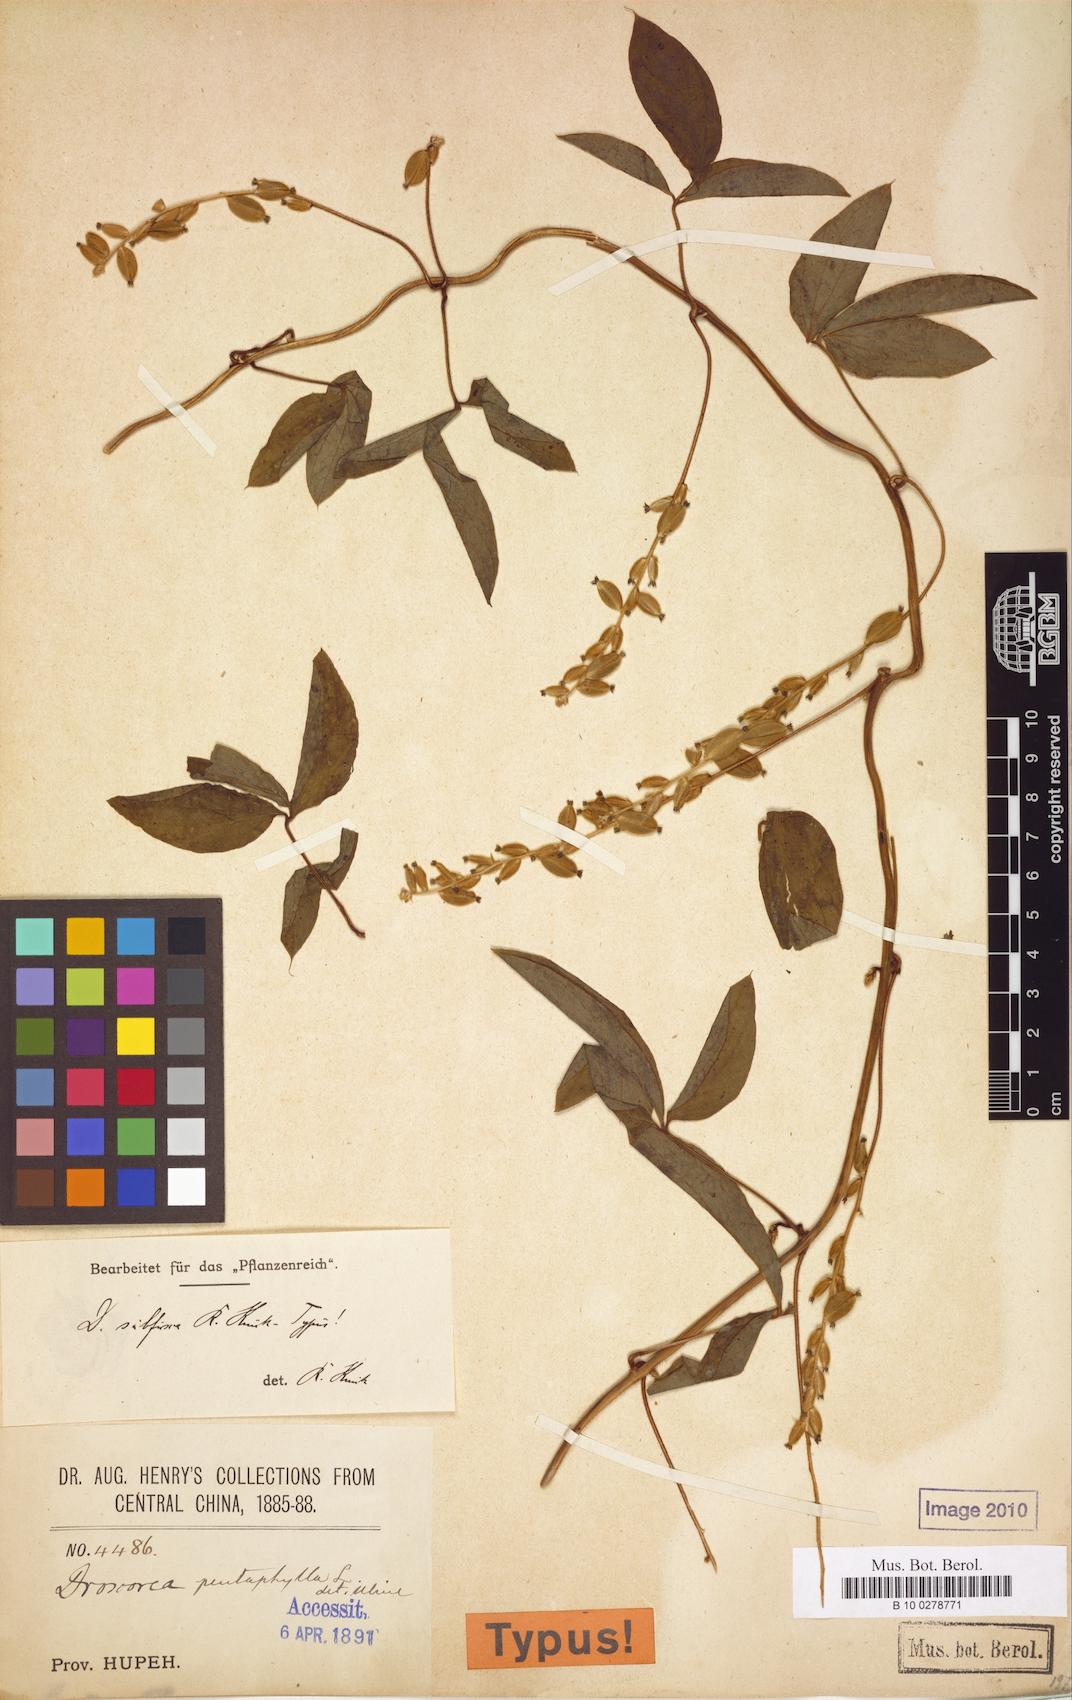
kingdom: Plantae
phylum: Tracheophyta
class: Liliopsida
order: Dioscoreales
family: Dioscoreaceae
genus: Dioscorea
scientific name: Dioscorea kamoonensis
